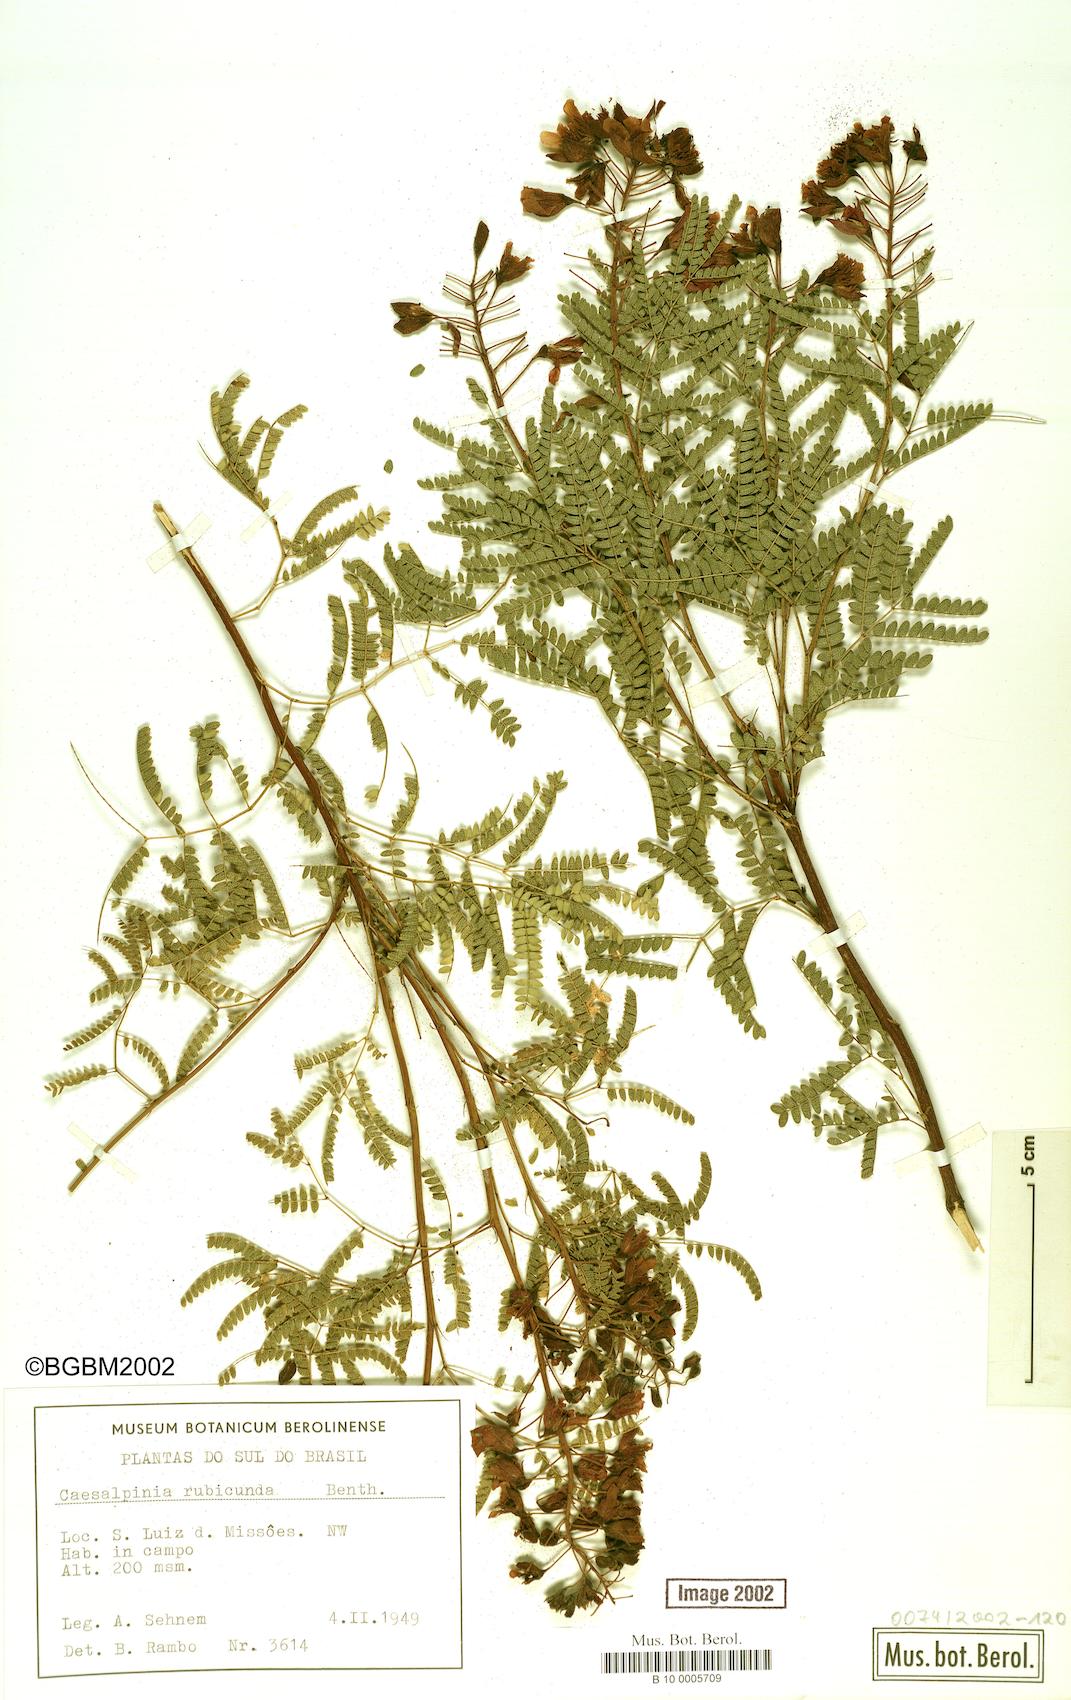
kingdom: Plantae
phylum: Tracheophyta
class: Magnoliopsida
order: Fabales
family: Fabaceae
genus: Pomaria
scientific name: Pomaria rubicunda
